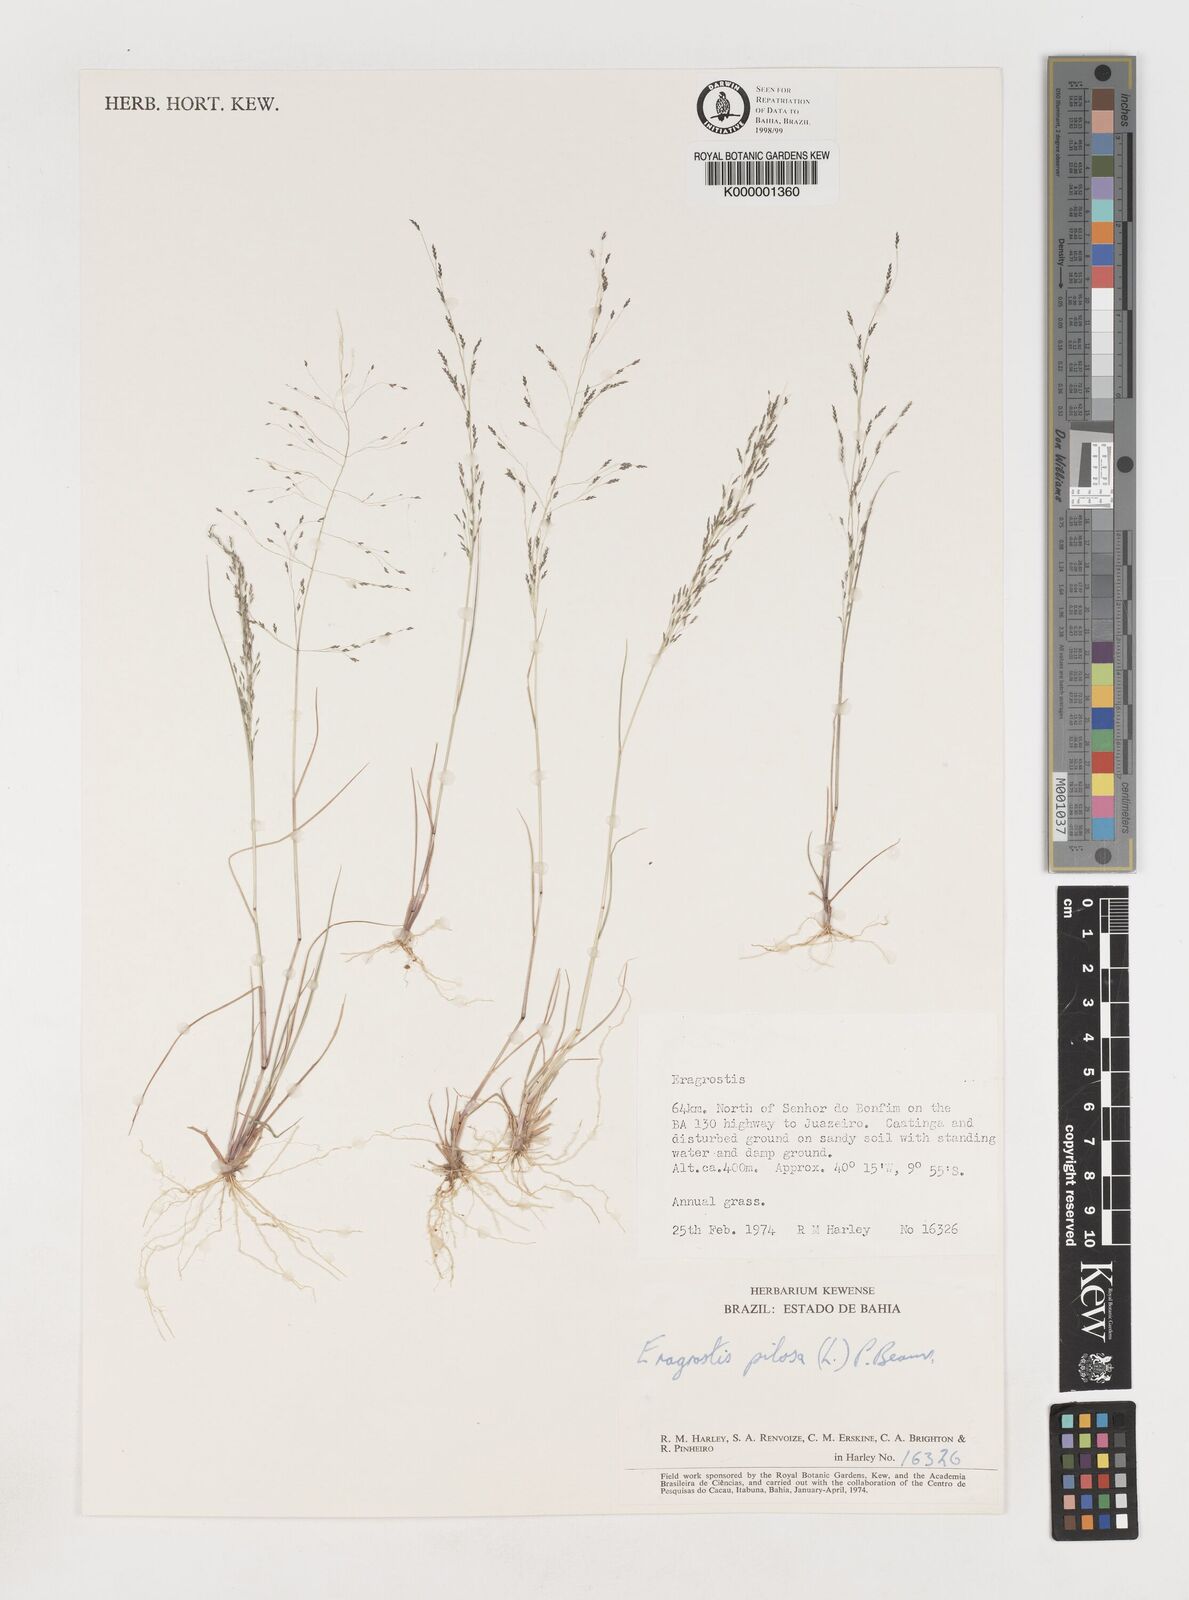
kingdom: Plantae
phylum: Tracheophyta
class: Liliopsida
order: Poales
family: Poaceae
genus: Eragrostis
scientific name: Eragrostis pilosa
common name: Indian lovegrass
